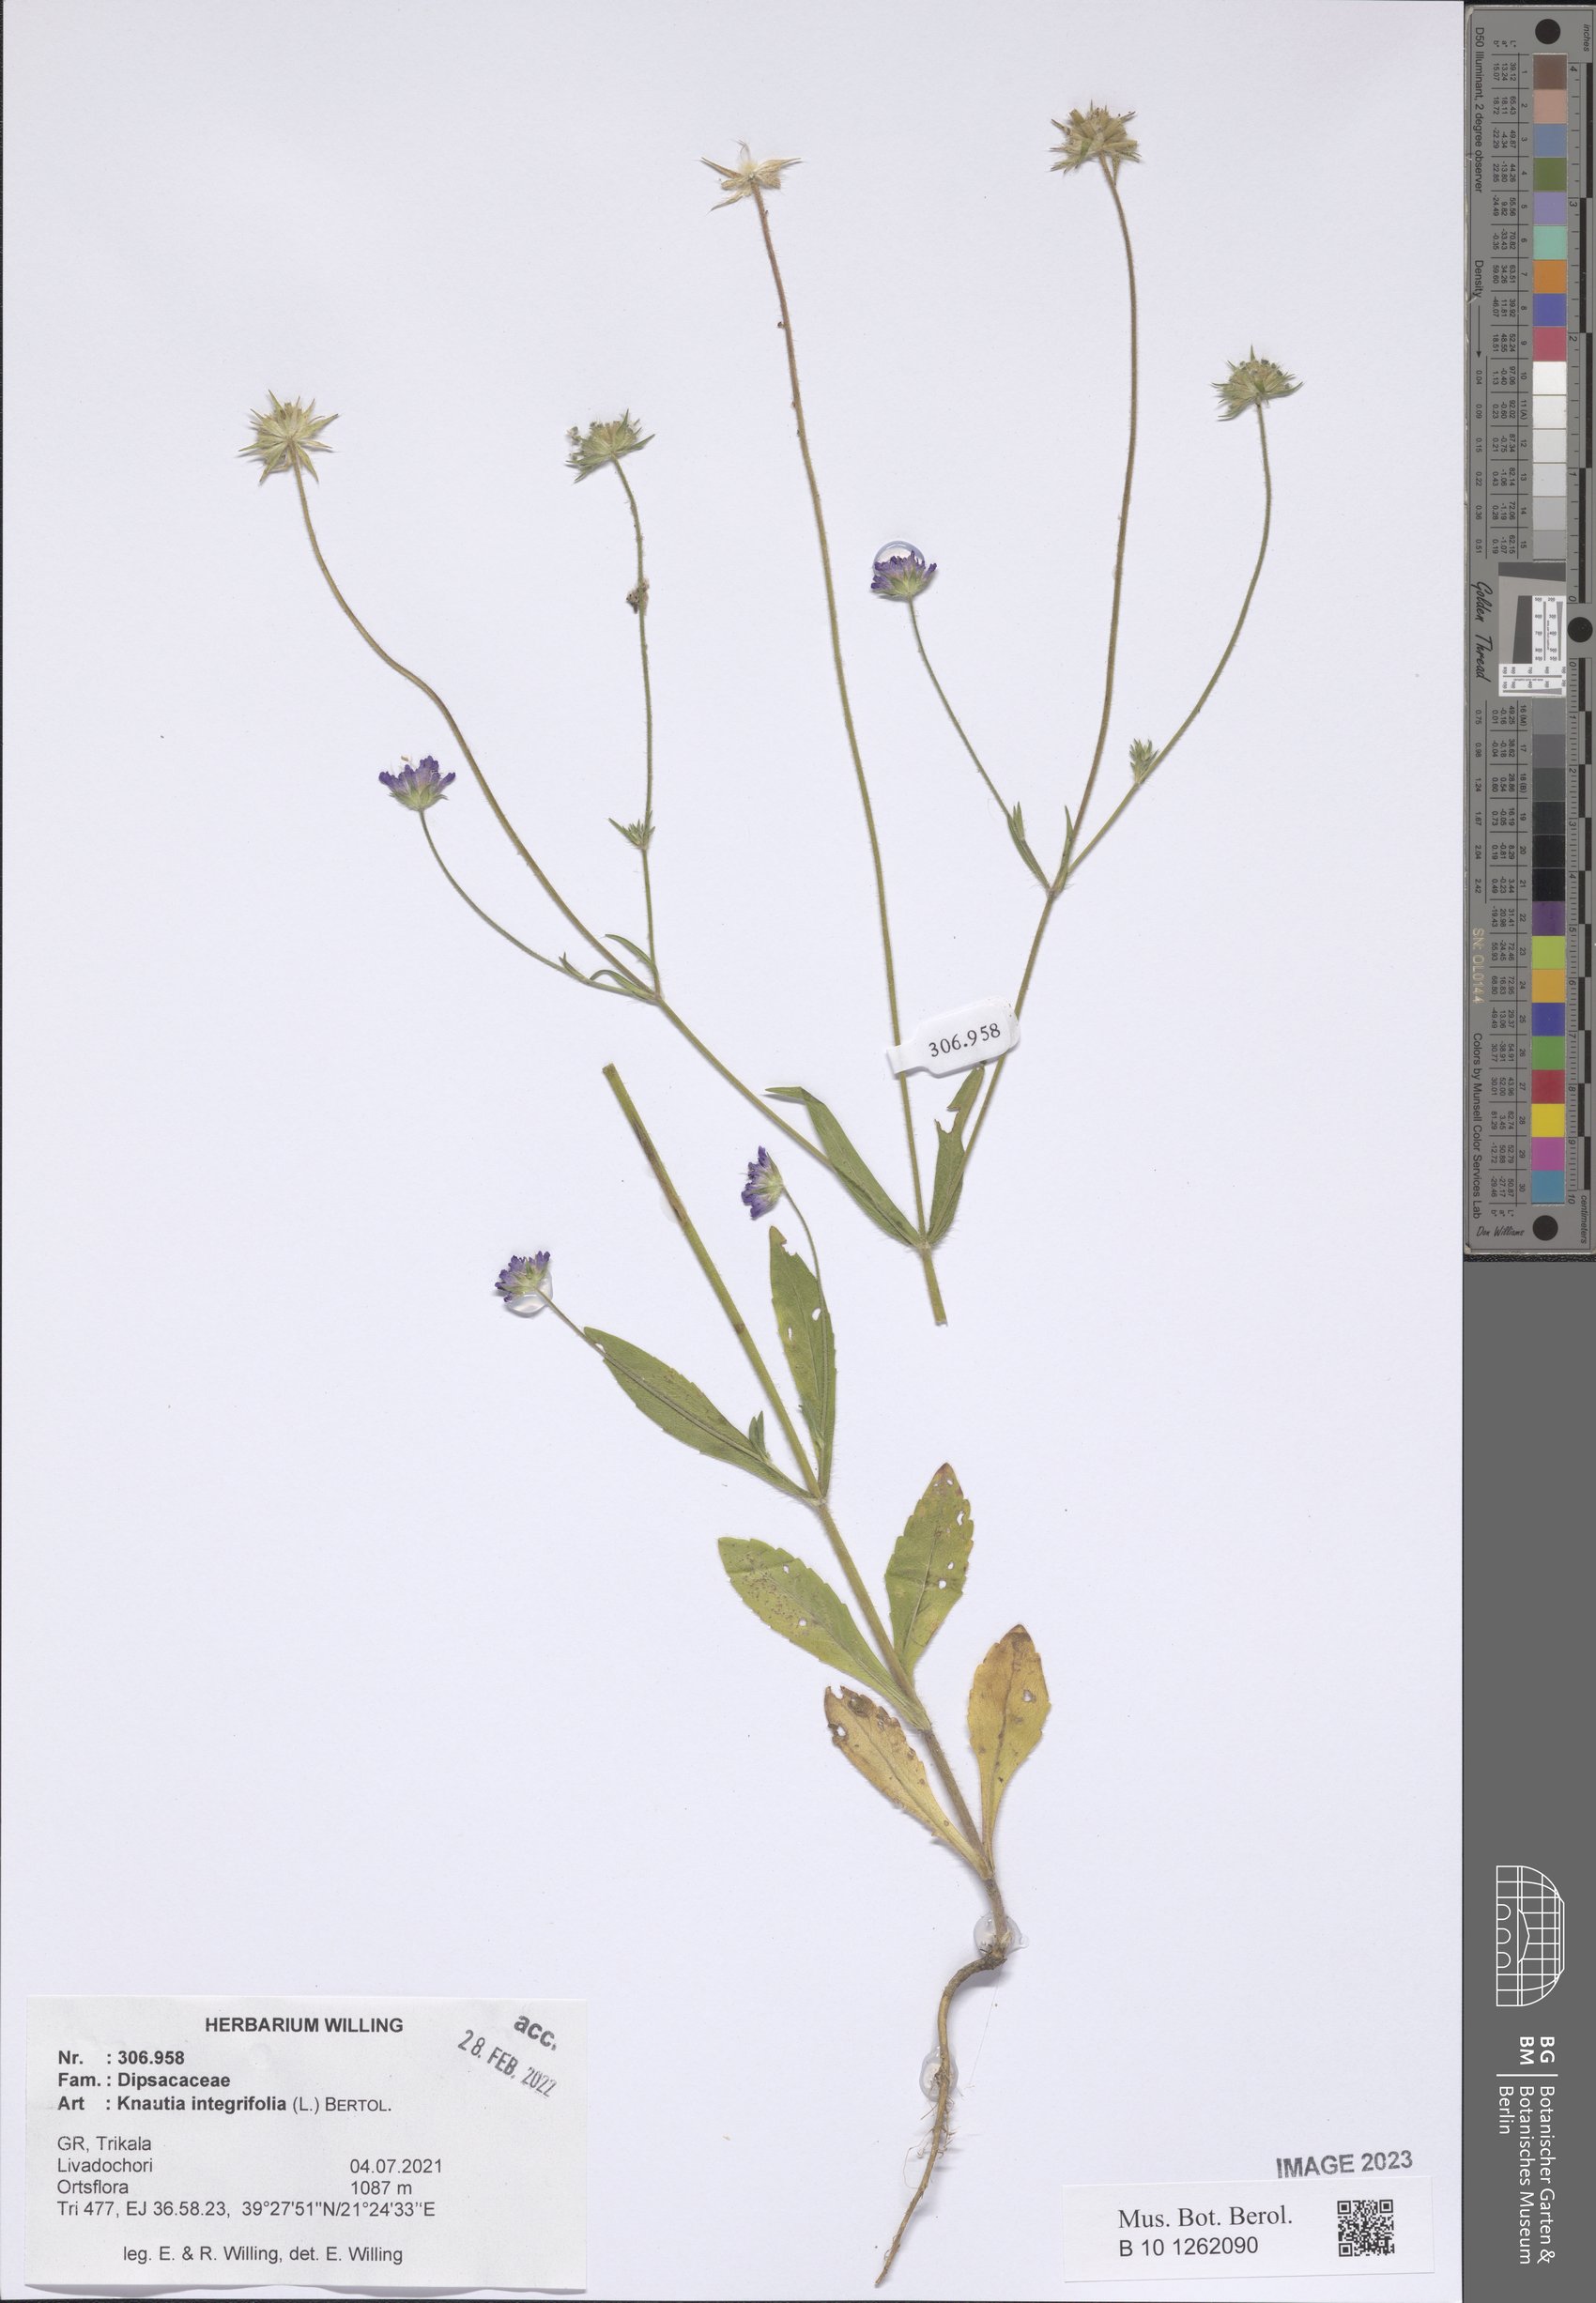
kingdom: Plantae
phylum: Tracheophyta
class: Magnoliopsida
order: Dipsacales
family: Caprifoliaceae
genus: Knautia
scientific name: Knautia integrifolia
